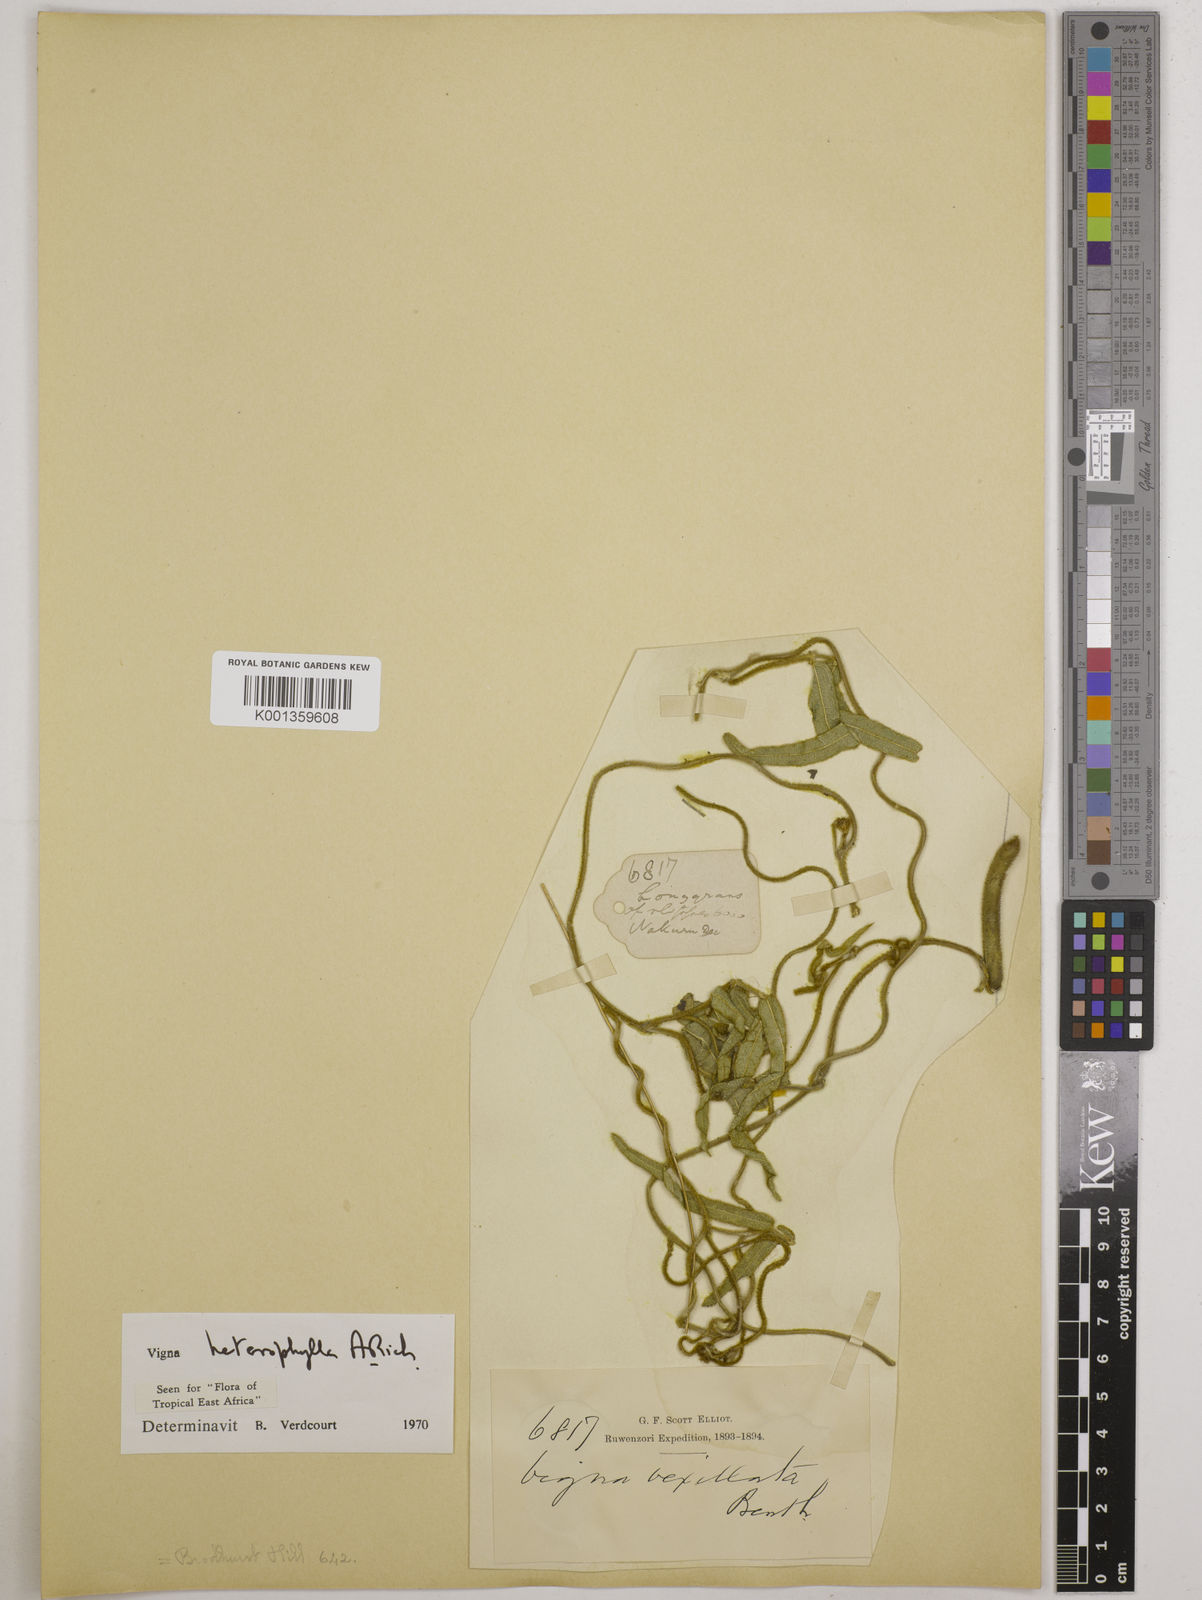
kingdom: Plantae
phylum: Tracheophyta
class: Magnoliopsida
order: Fabales
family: Fabaceae
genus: Vigna
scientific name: Vigna heterophylla
